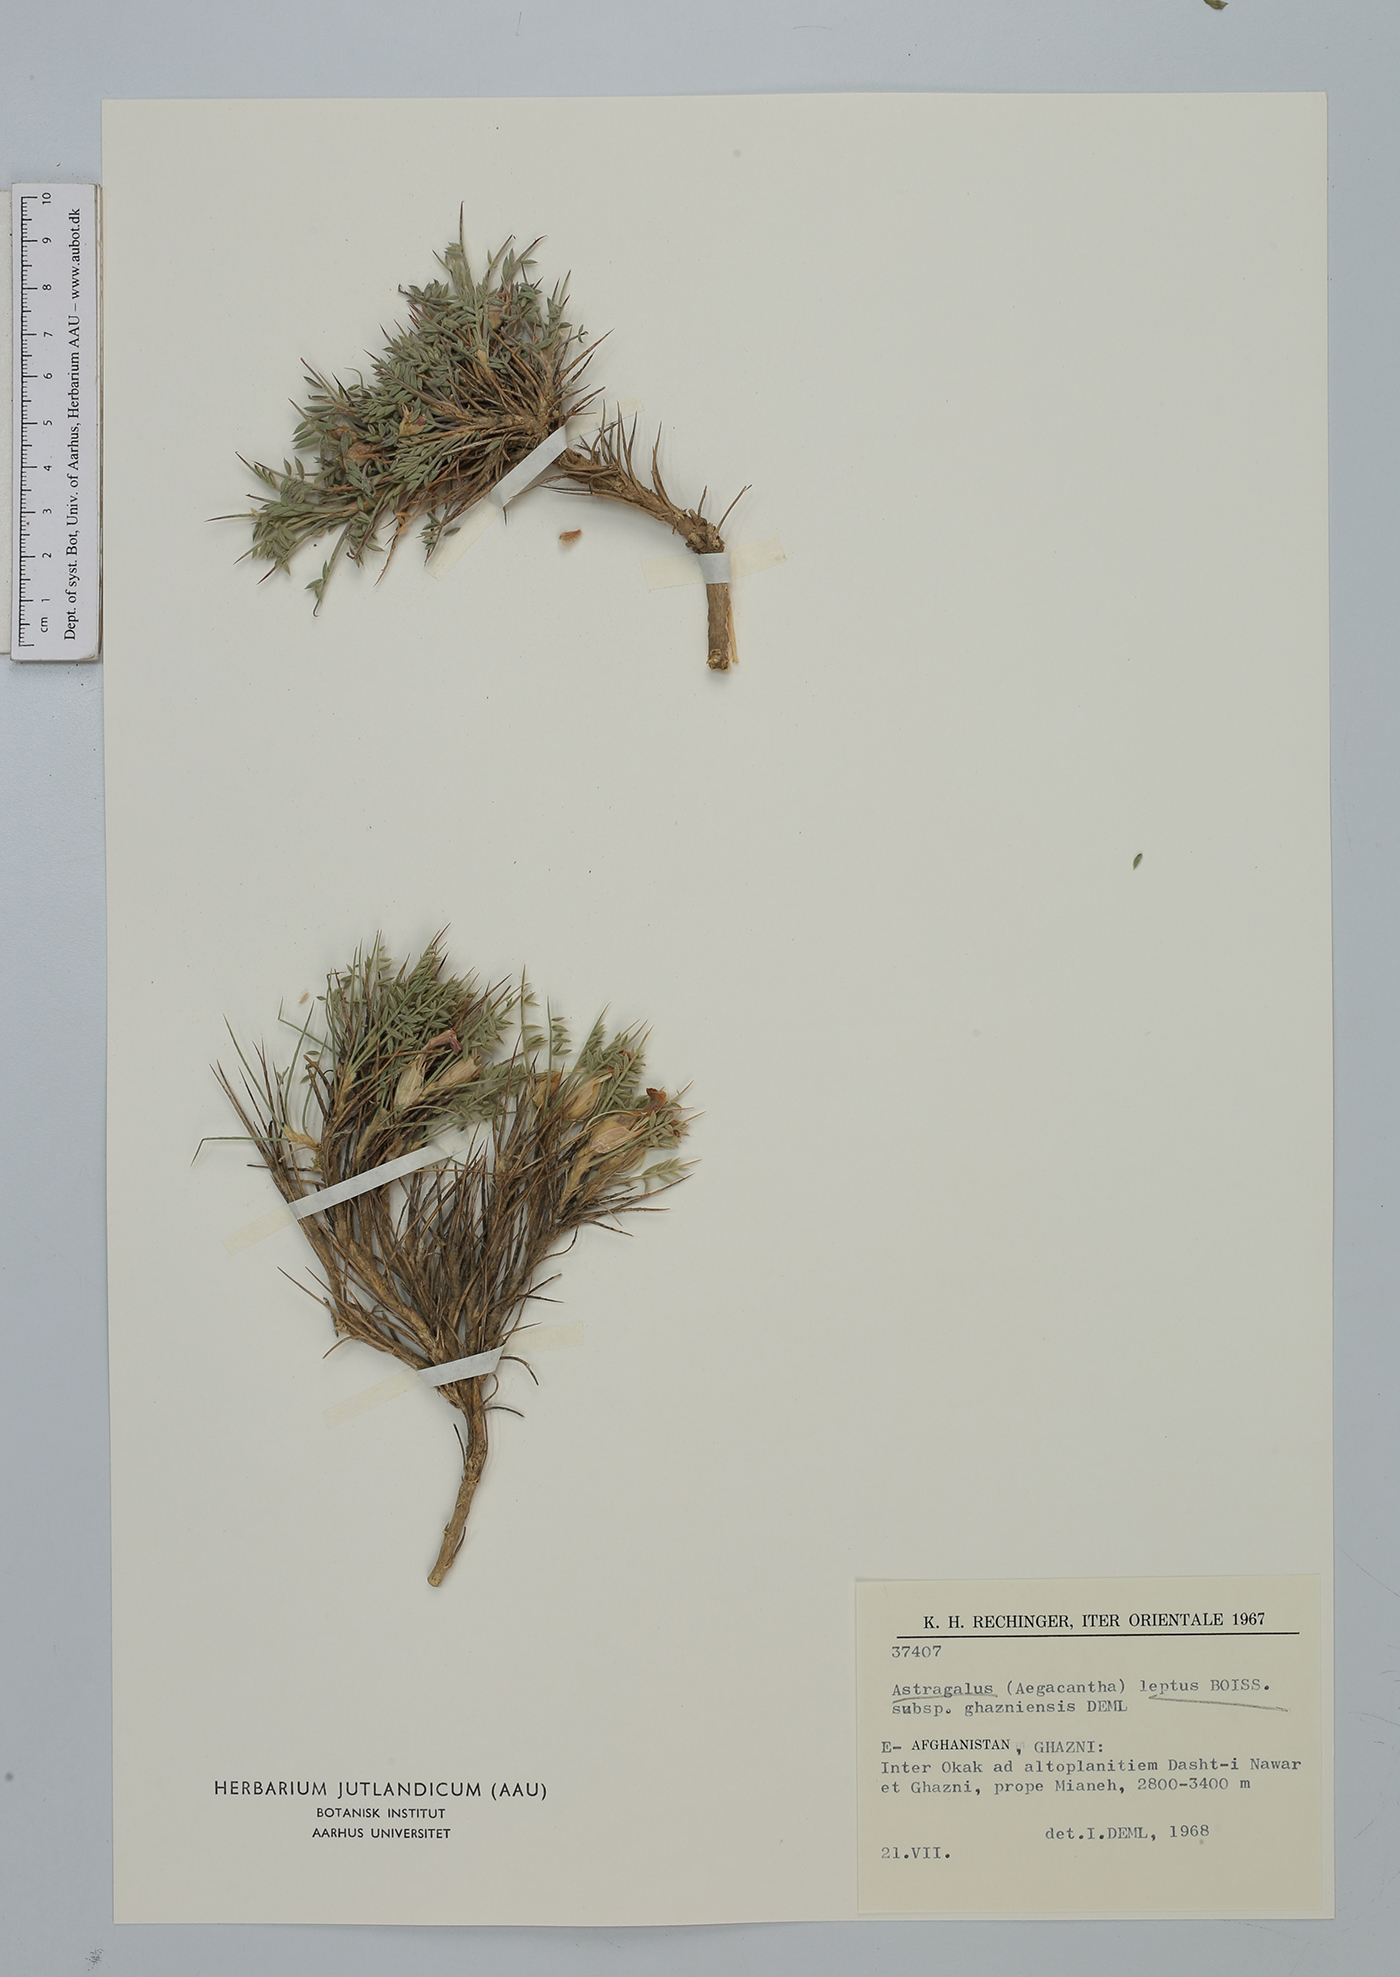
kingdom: Plantae
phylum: Tracheophyta
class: Magnoliopsida
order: Fabales
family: Fabaceae
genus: Astragalus
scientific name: Astragalus leptus
